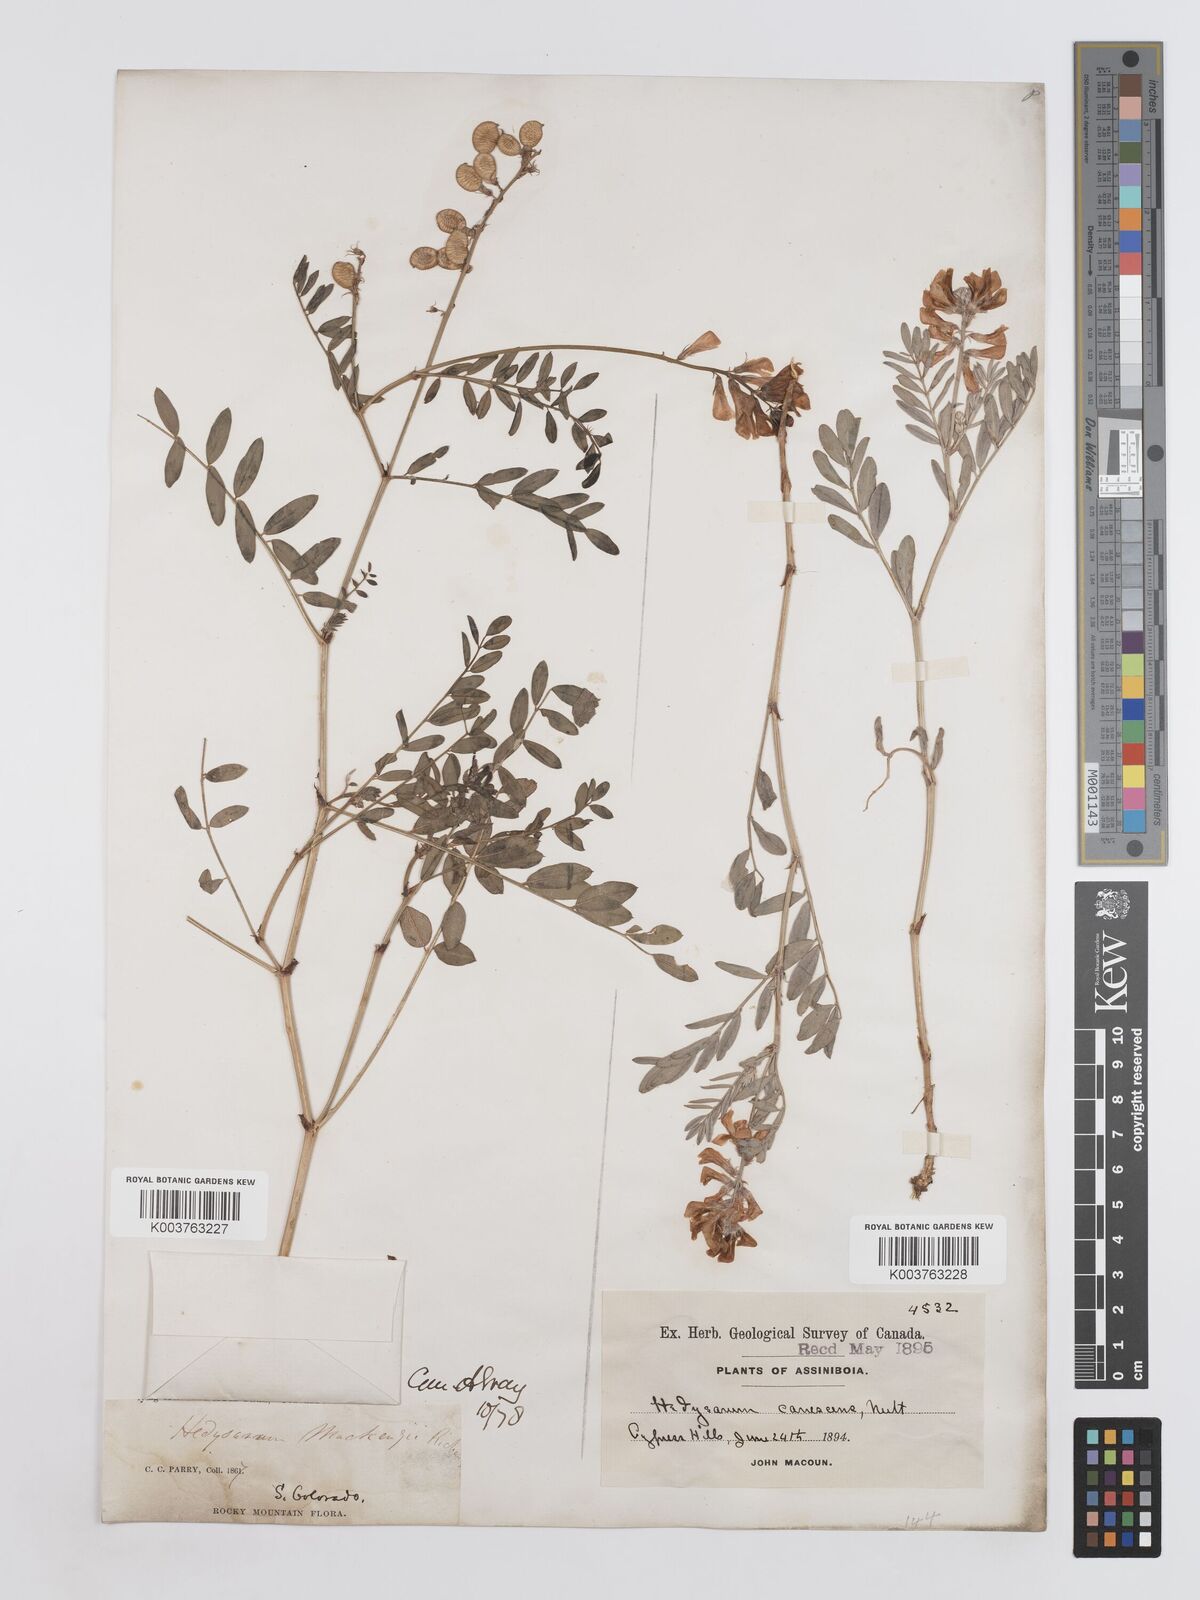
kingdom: Plantae
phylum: Tracheophyta
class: Magnoliopsida
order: Fabales
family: Fabaceae
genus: Hedysarum
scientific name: Hedysarum boreale
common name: Northern sweet-vetch
